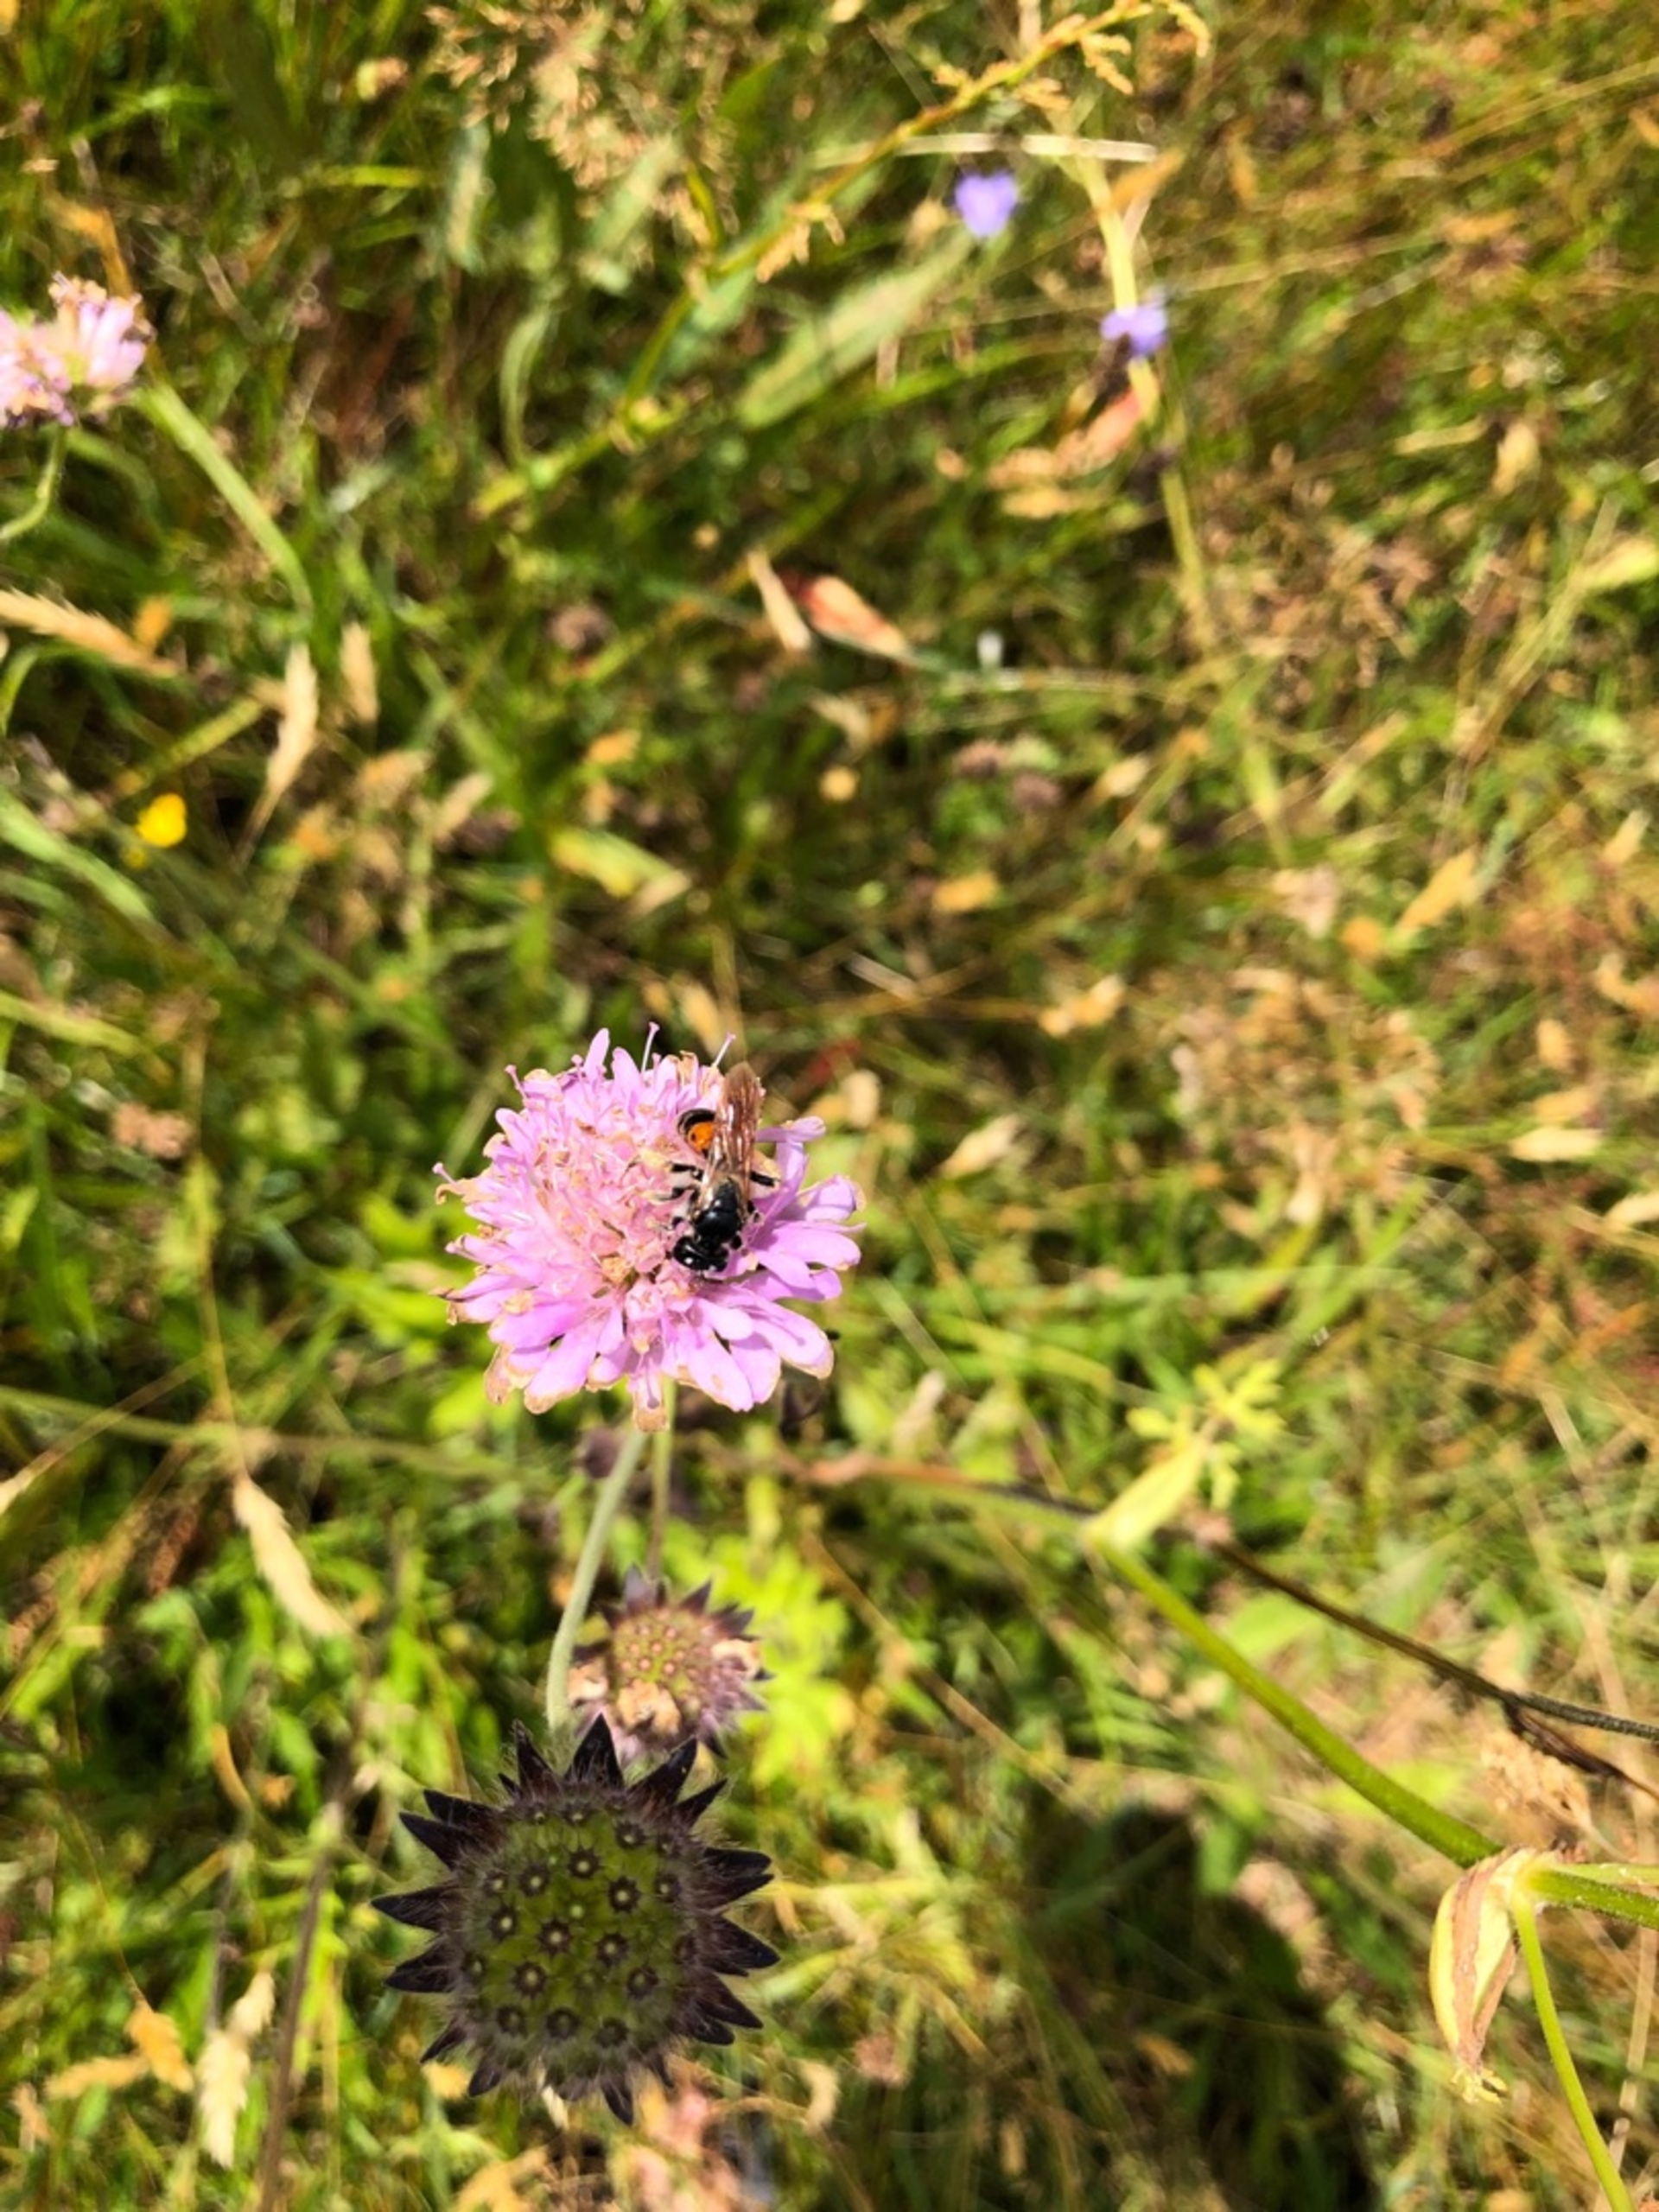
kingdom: Animalia
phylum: Arthropoda
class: Insecta
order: Hymenoptera
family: Andrenidae
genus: Andrena
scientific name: Andrena hattorfiana
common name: Blåhatjordbi
